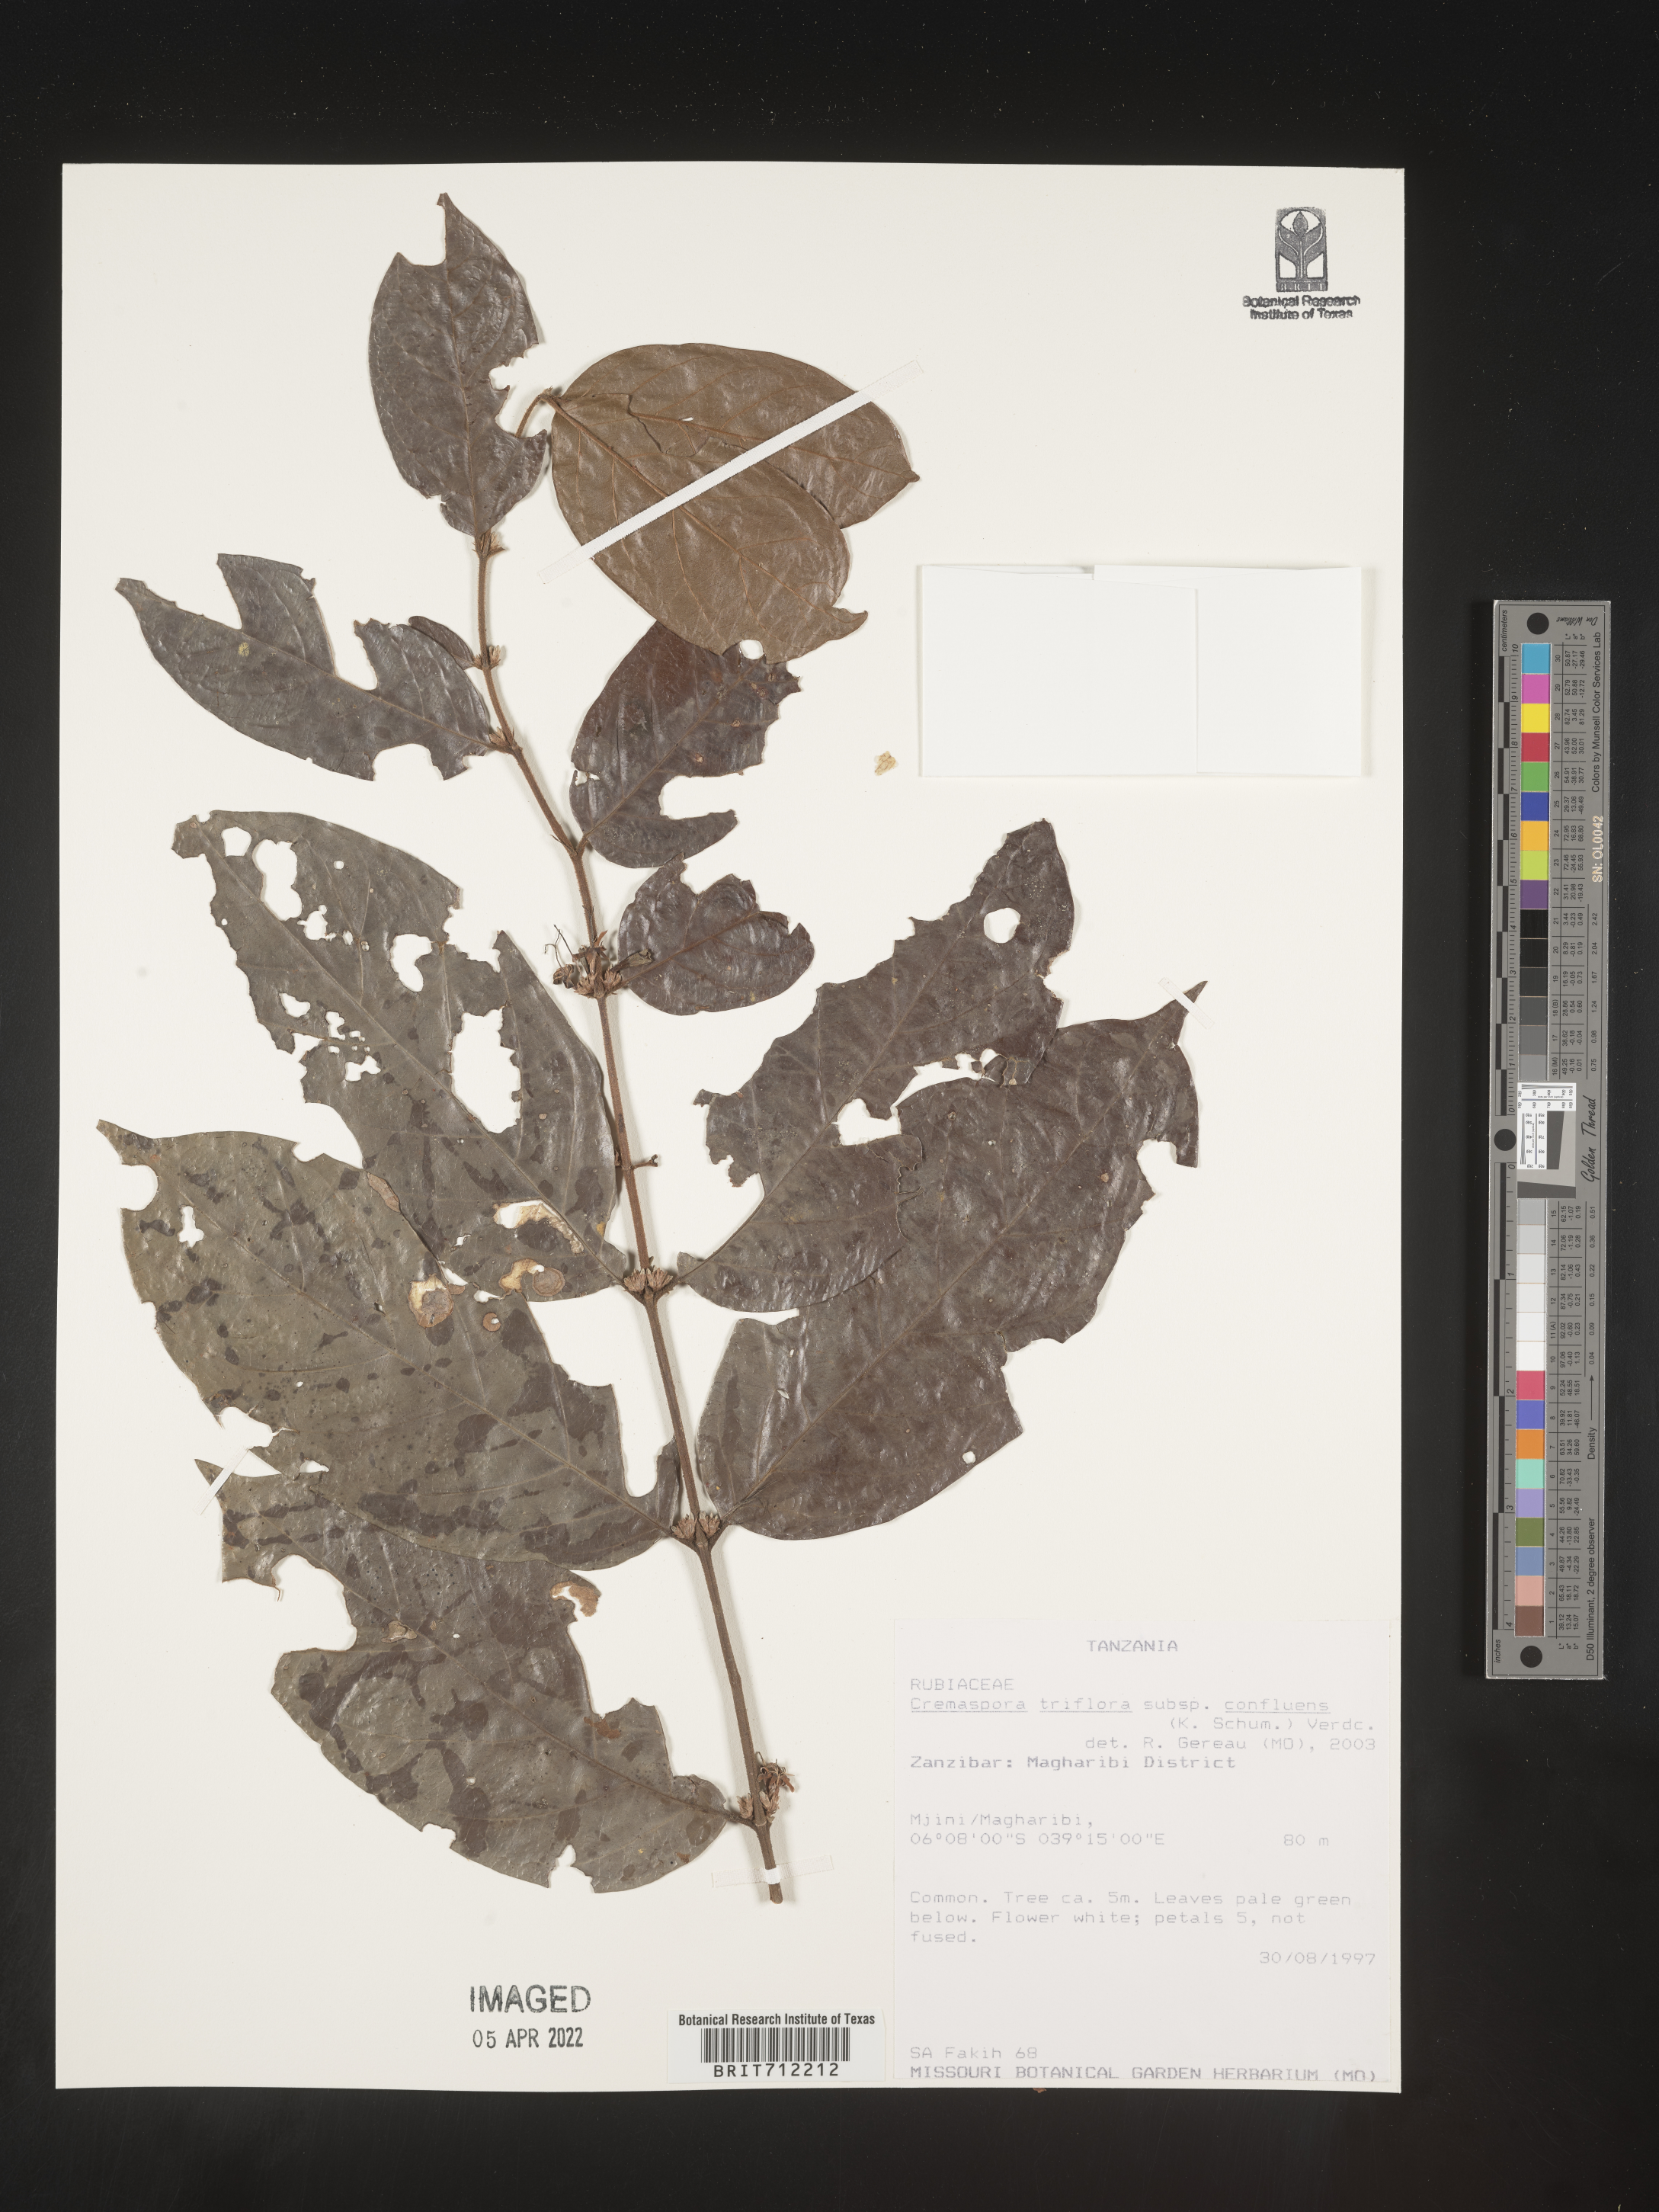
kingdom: Plantae
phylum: Tracheophyta
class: Magnoliopsida
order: Gentianales
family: Rubiaceae
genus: Cremaspora
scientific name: Cremaspora
